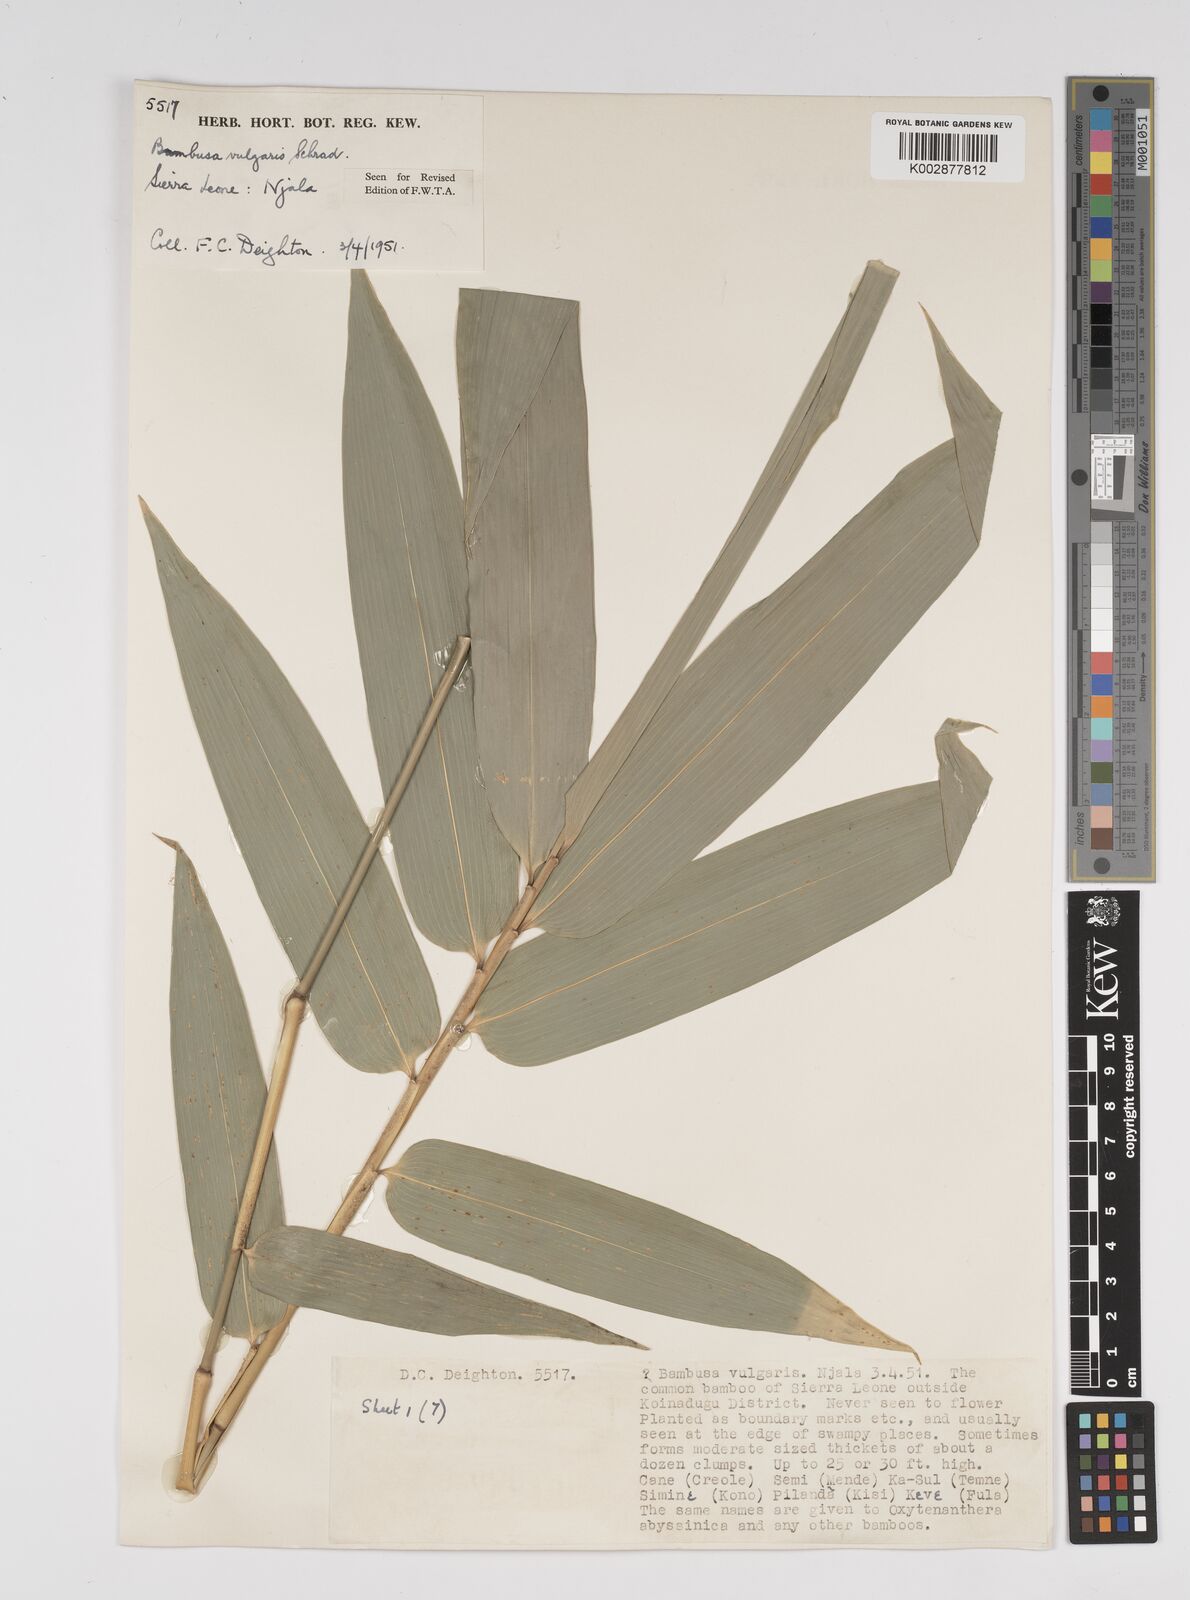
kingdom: Plantae
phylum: Tracheophyta
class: Liliopsida
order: Poales
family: Poaceae
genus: Bambusa
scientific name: Bambusa vulgaris
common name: Common bamboo
